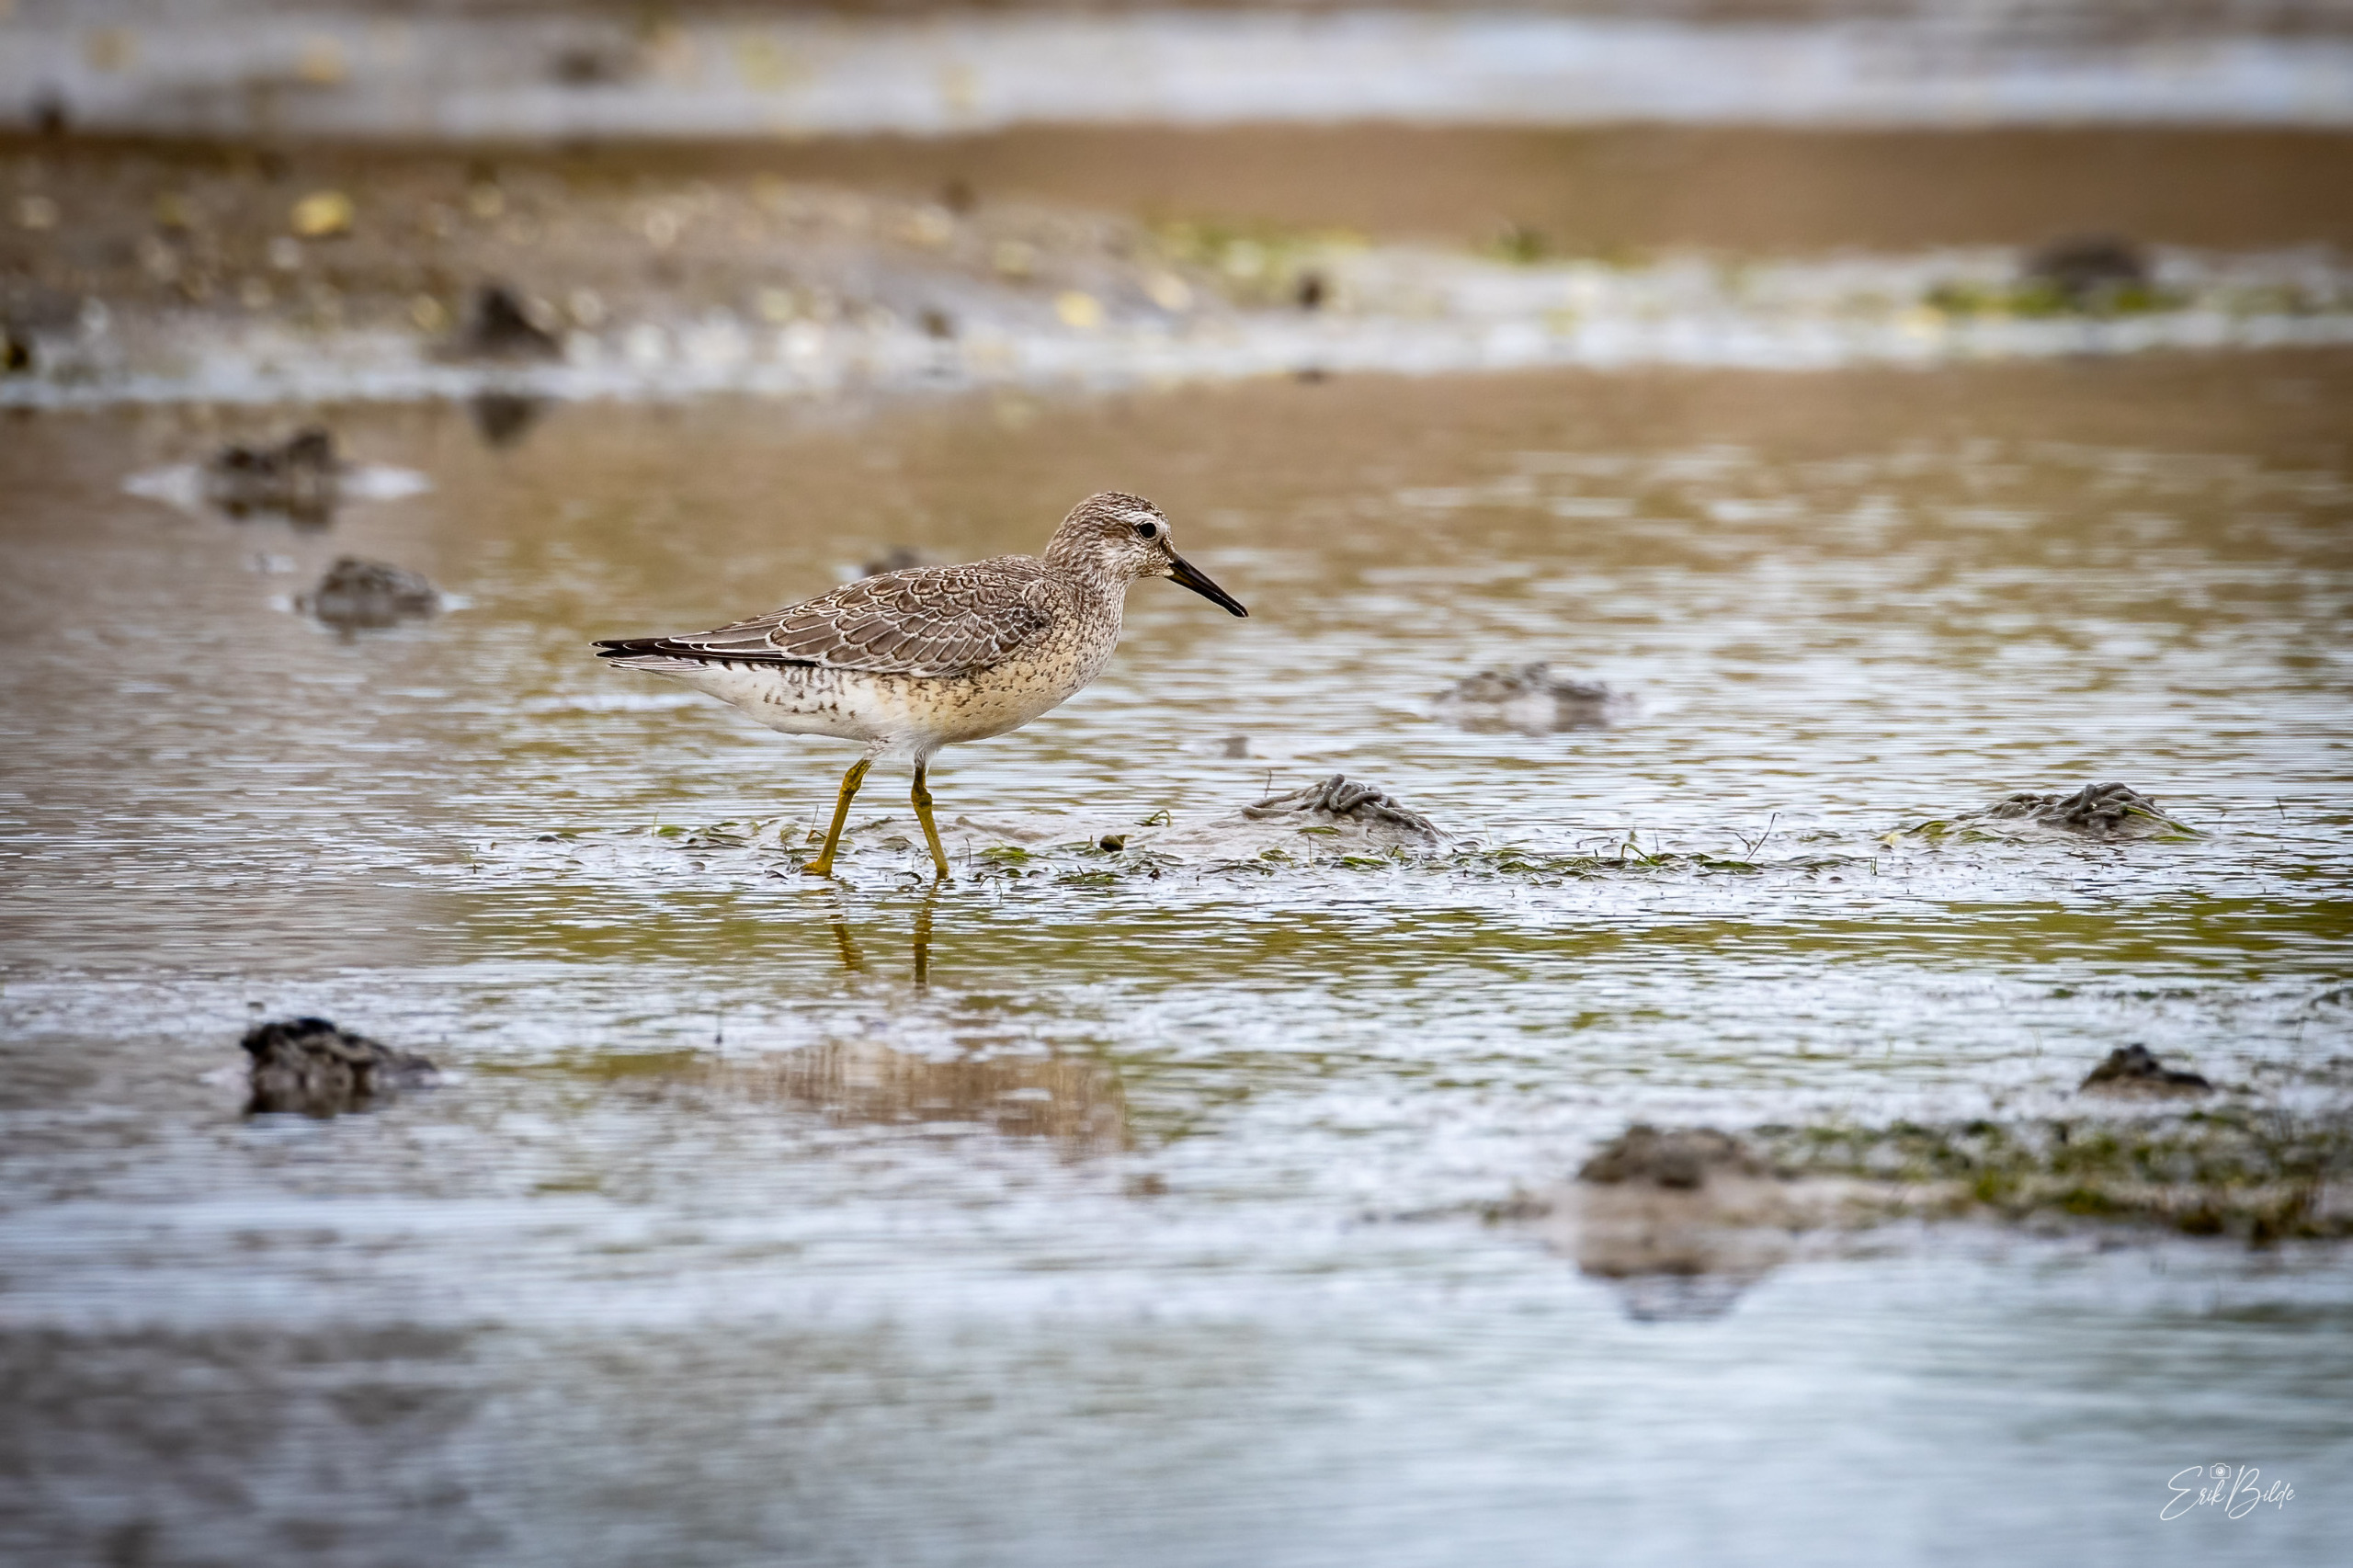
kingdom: Animalia
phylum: Chordata
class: Aves
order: Charadriiformes
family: Scolopacidae
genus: Calidris
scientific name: Calidris canutus
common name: Islandsk ryle
